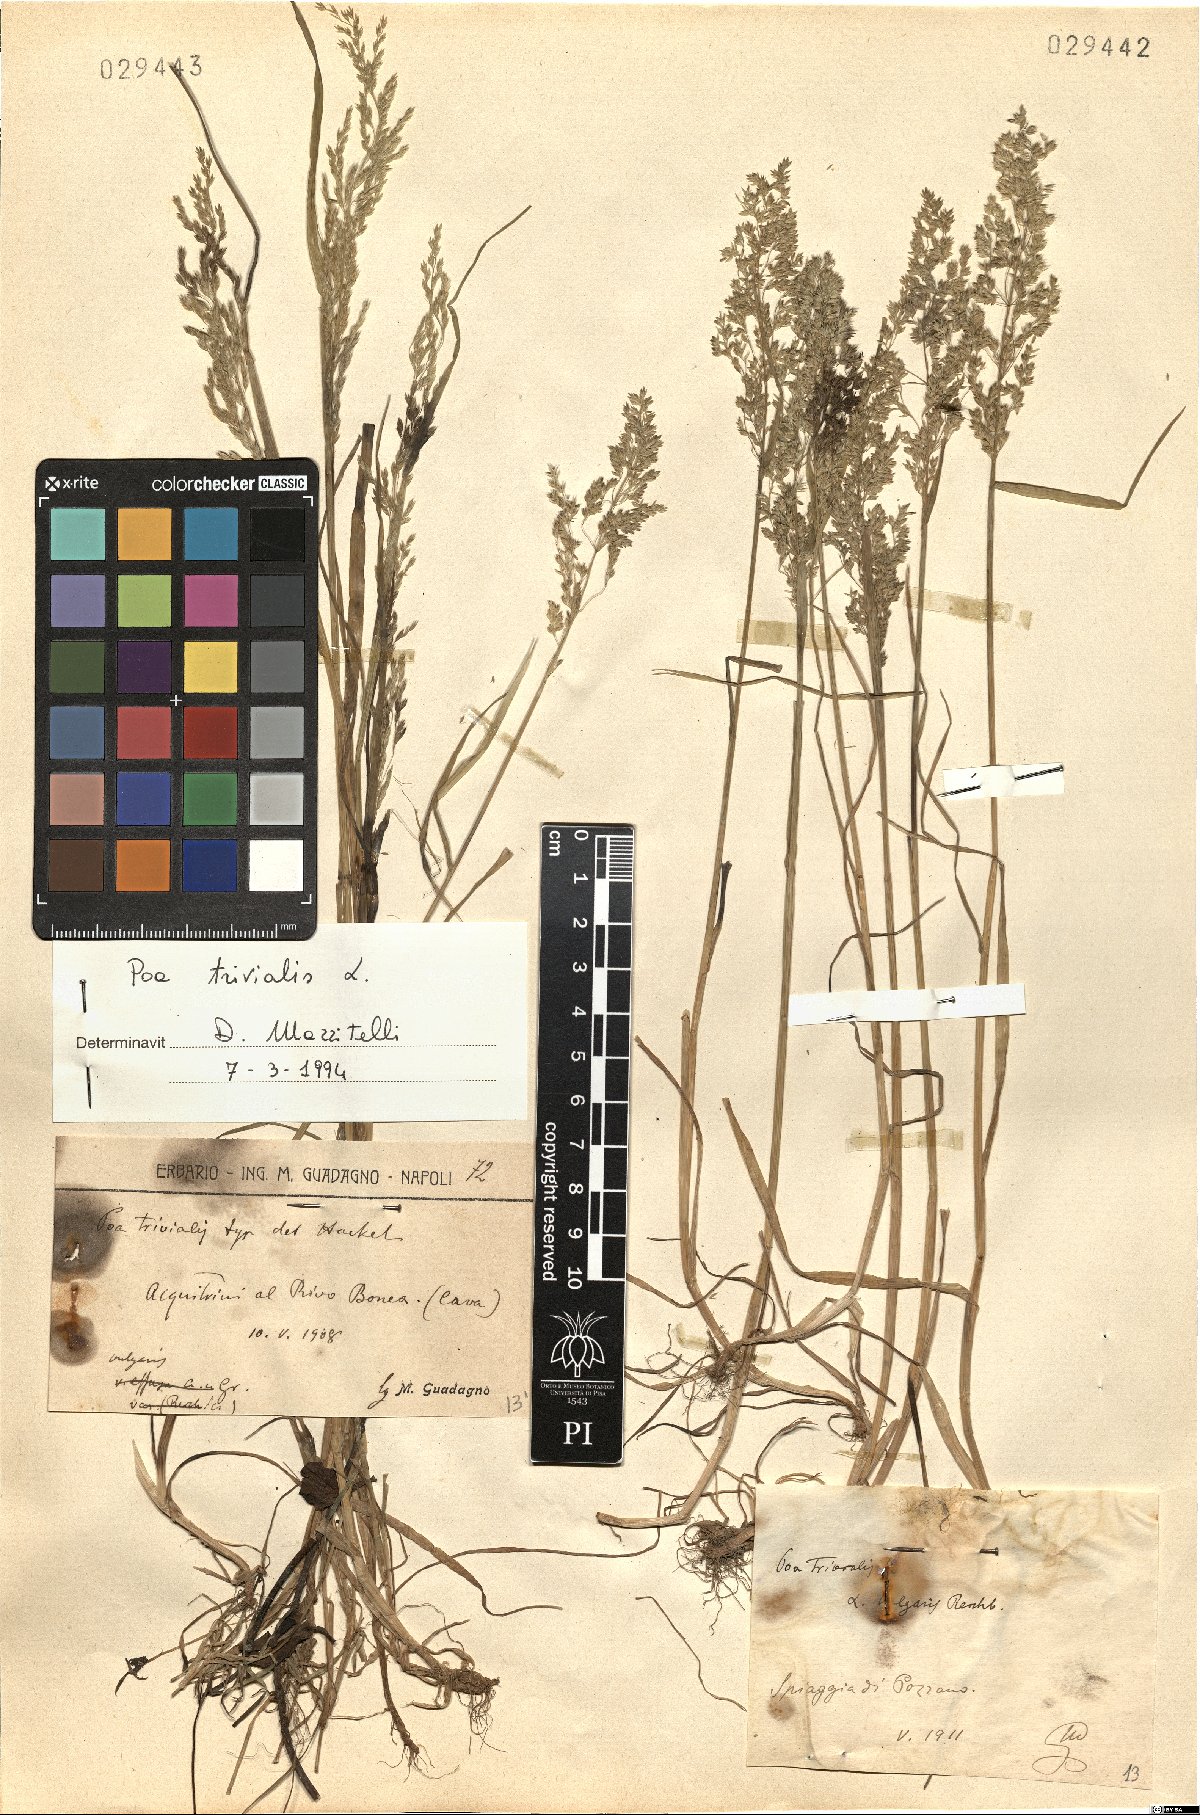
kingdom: Plantae
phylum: Tracheophyta
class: Liliopsida
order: Poales
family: Poaceae
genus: Poa
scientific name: Poa trivialis
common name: Rough bluegrass
